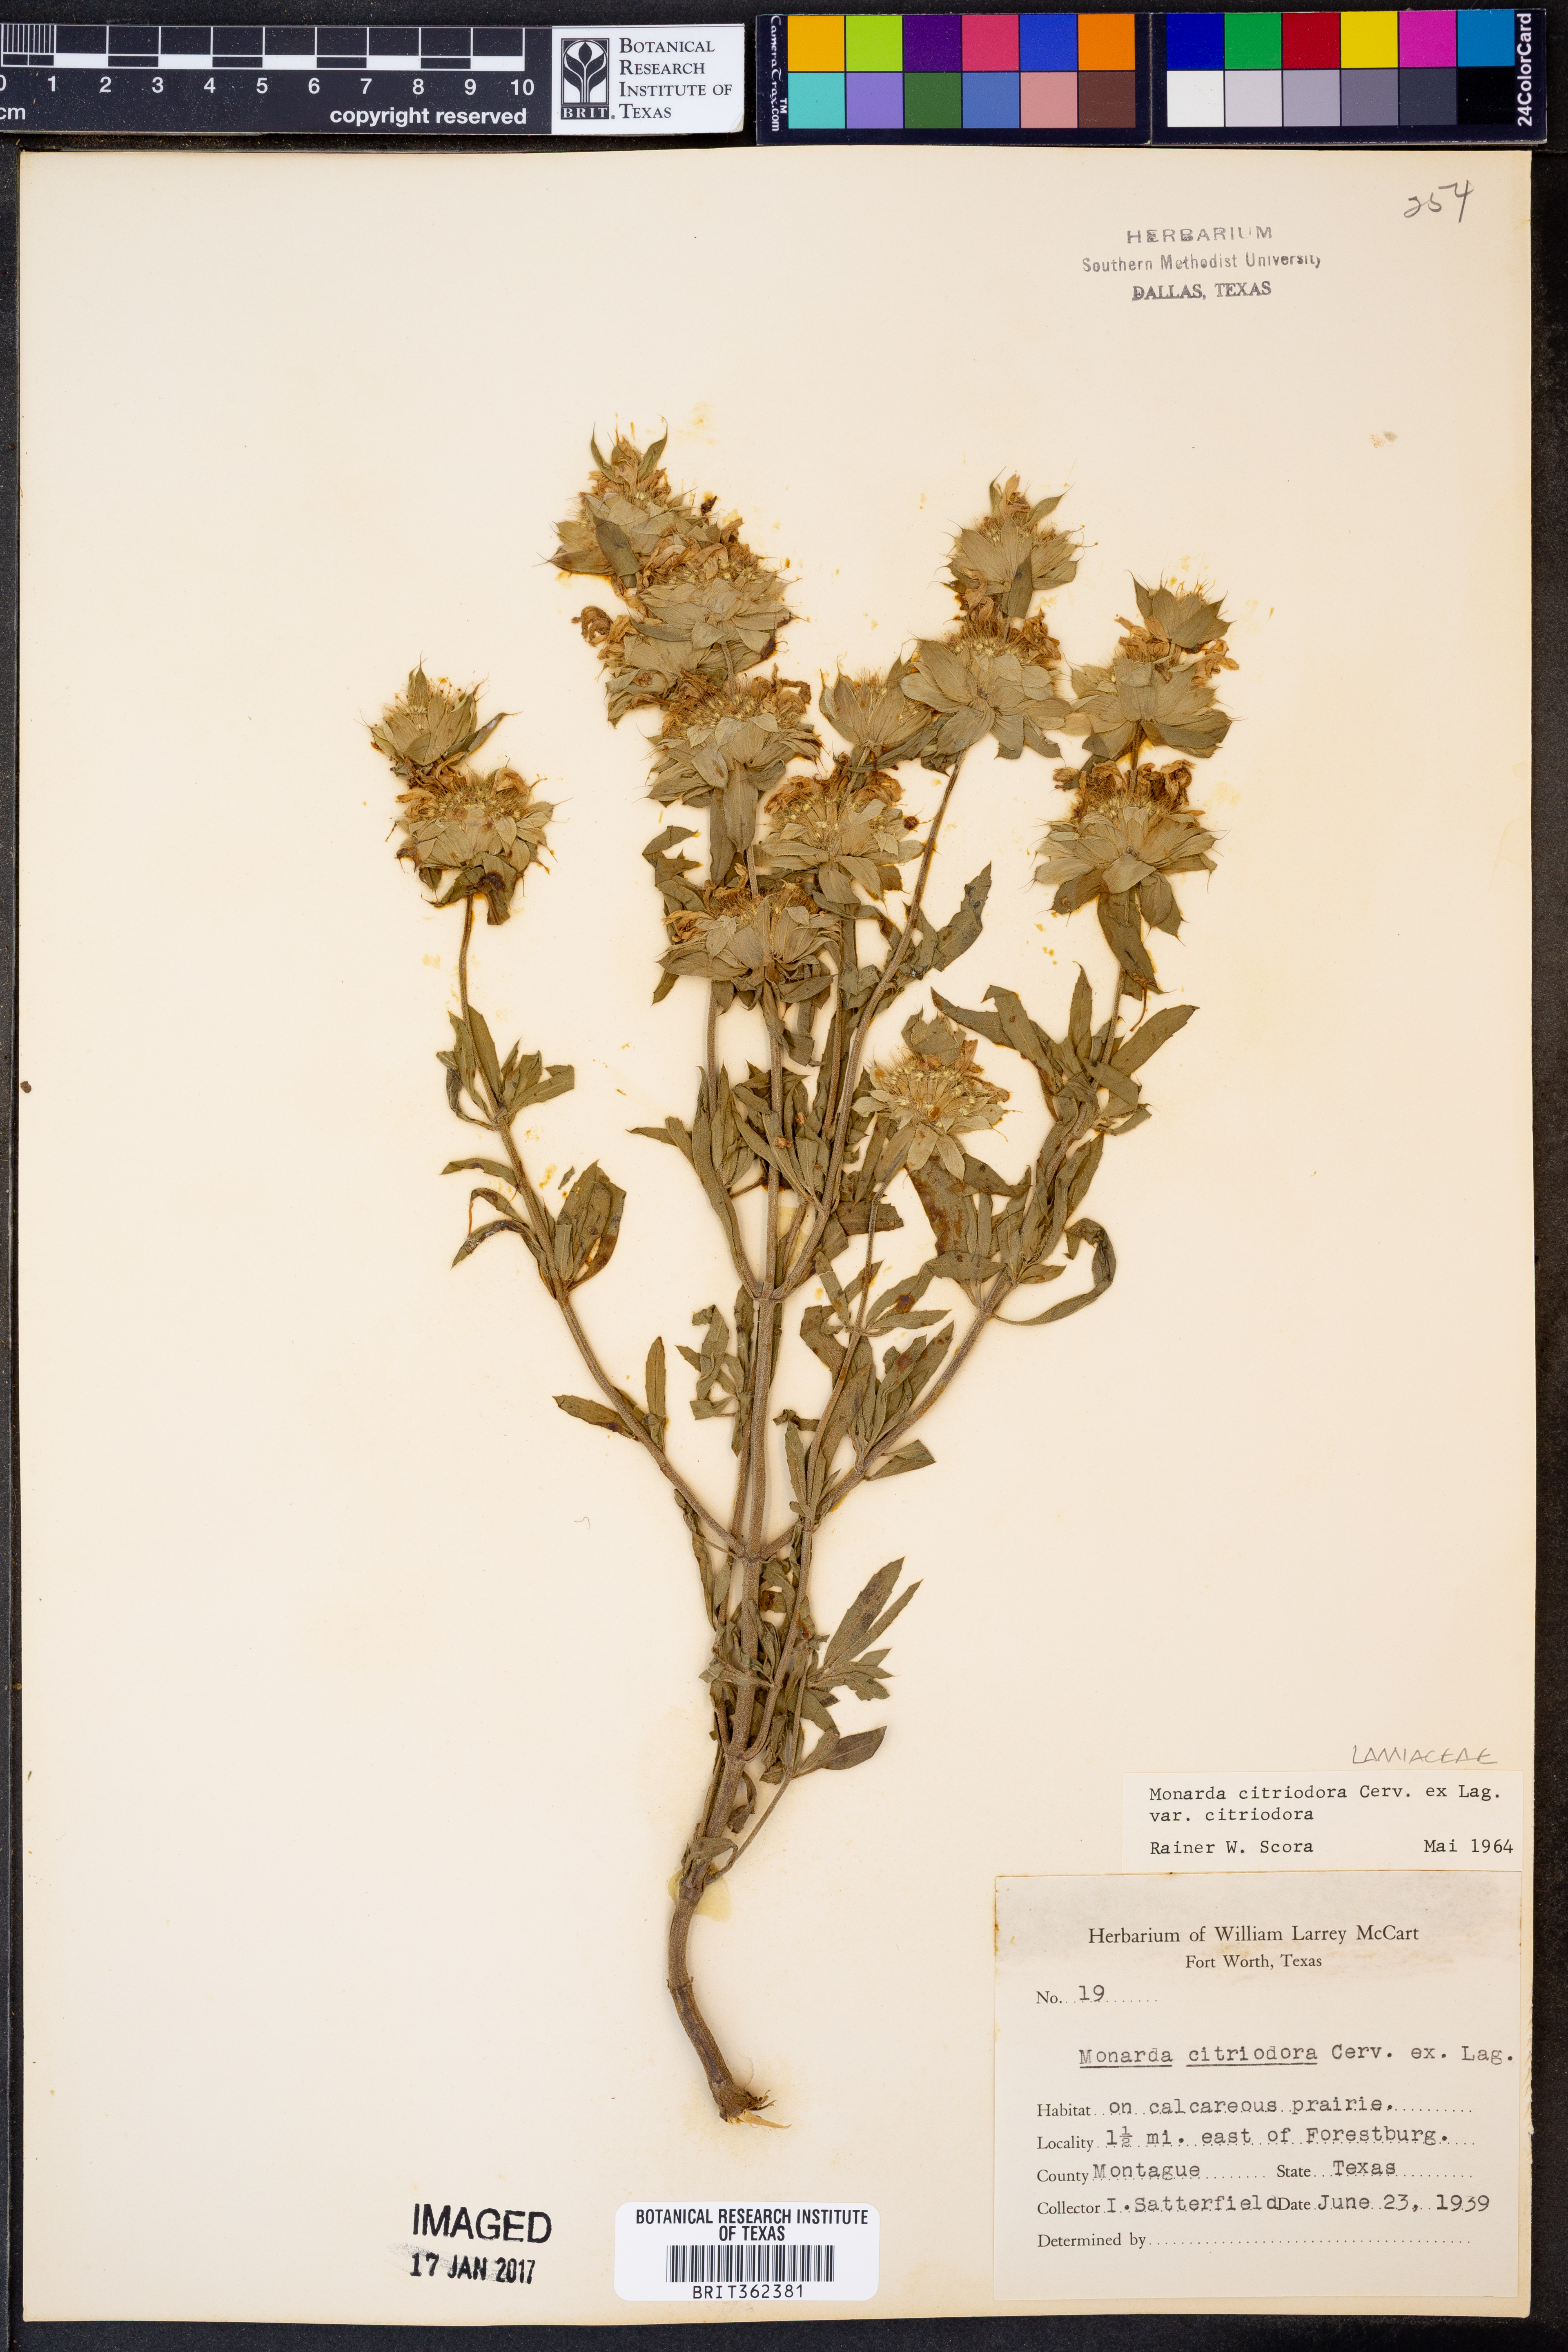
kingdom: Plantae
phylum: Tracheophyta
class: Magnoliopsida
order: Lamiales
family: Lamiaceae
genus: Monarda
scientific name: Monarda citriodora
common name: Lemon beebalm
